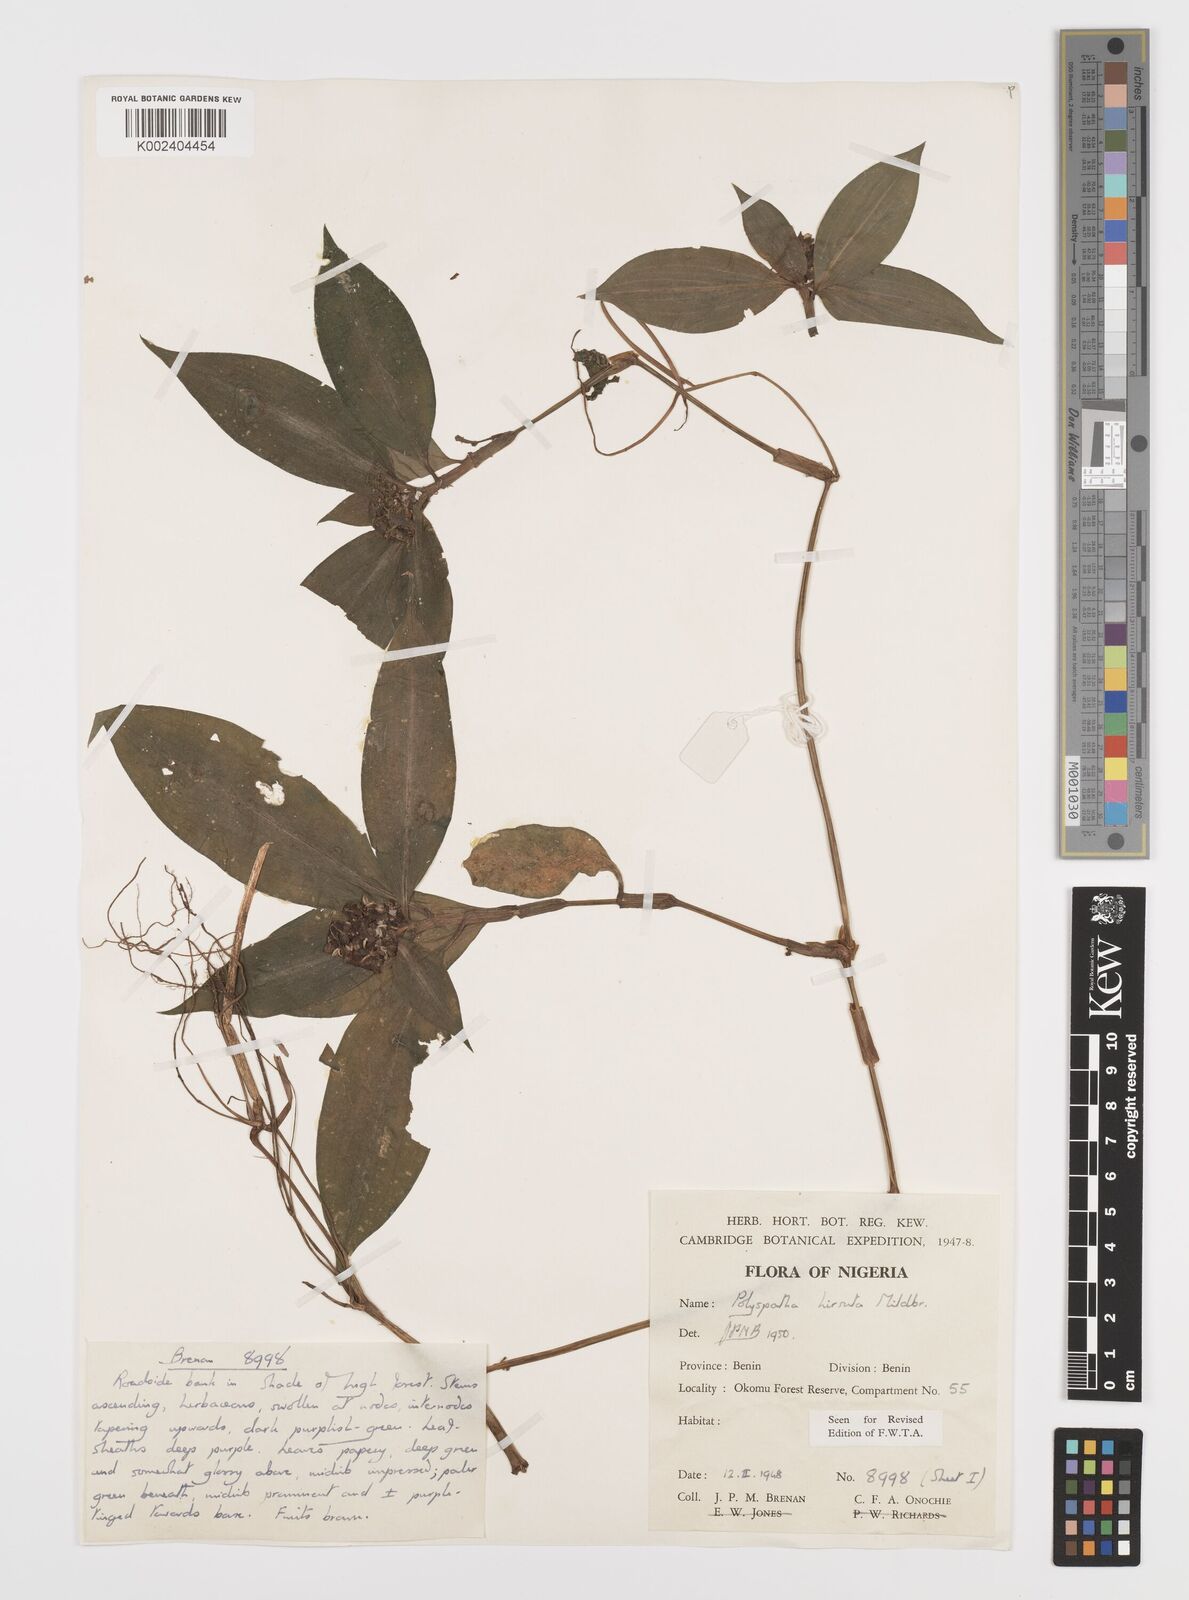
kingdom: Plantae
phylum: Tracheophyta
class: Liliopsida
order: Commelinales
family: Commelinaceae
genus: Polyspatha
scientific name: Polyspatha hirsuta
